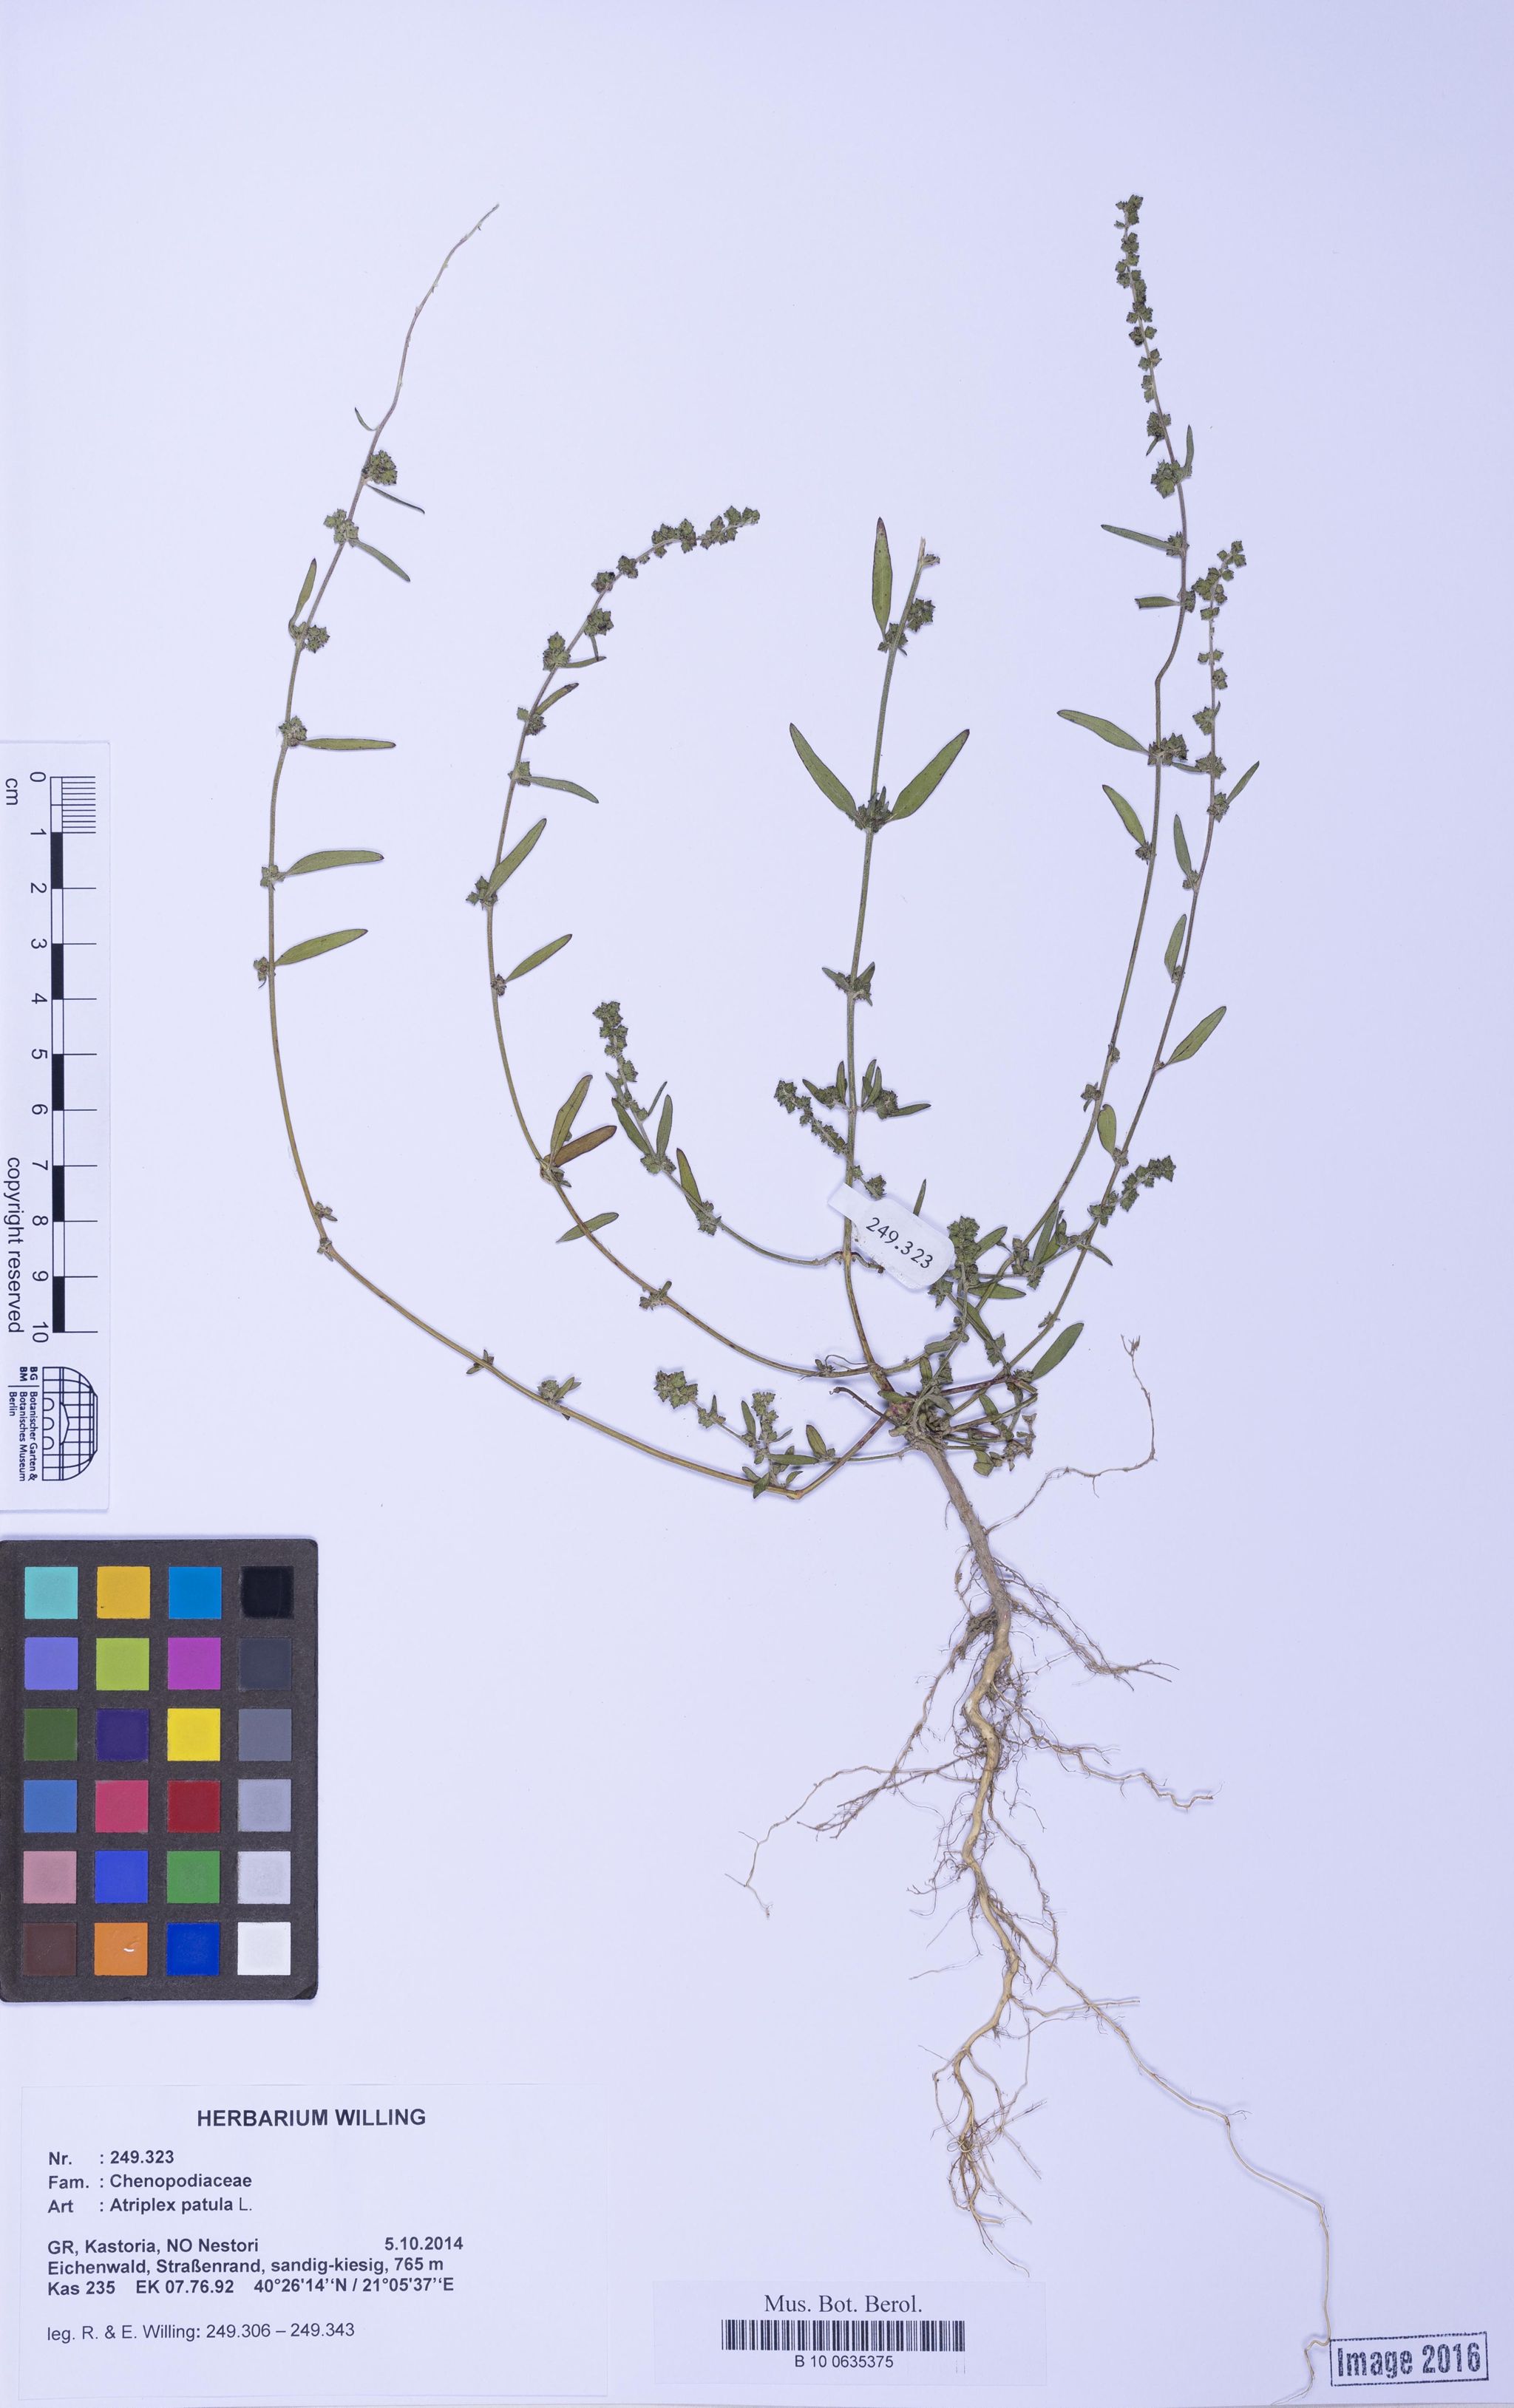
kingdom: Plantae
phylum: Tracheophyta
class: Magnoliopsida
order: Caryophyllales
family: Amaranthaceae
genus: Atriplex
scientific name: Atriplex patula
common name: Common orache
